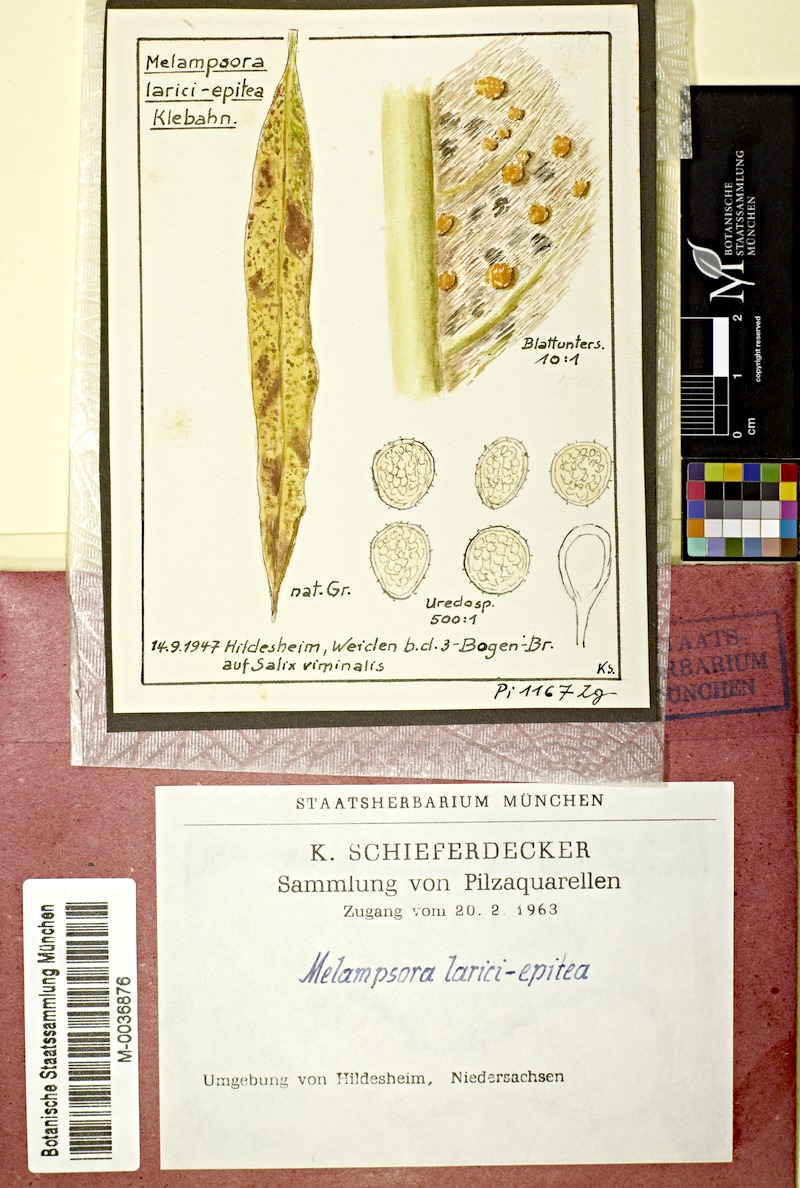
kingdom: Fungi
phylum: Basidiomycota
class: Pucciniomycetes
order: Pucciniales
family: Melampsoraceae
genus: Melampsora
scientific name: Melampsora epitea
